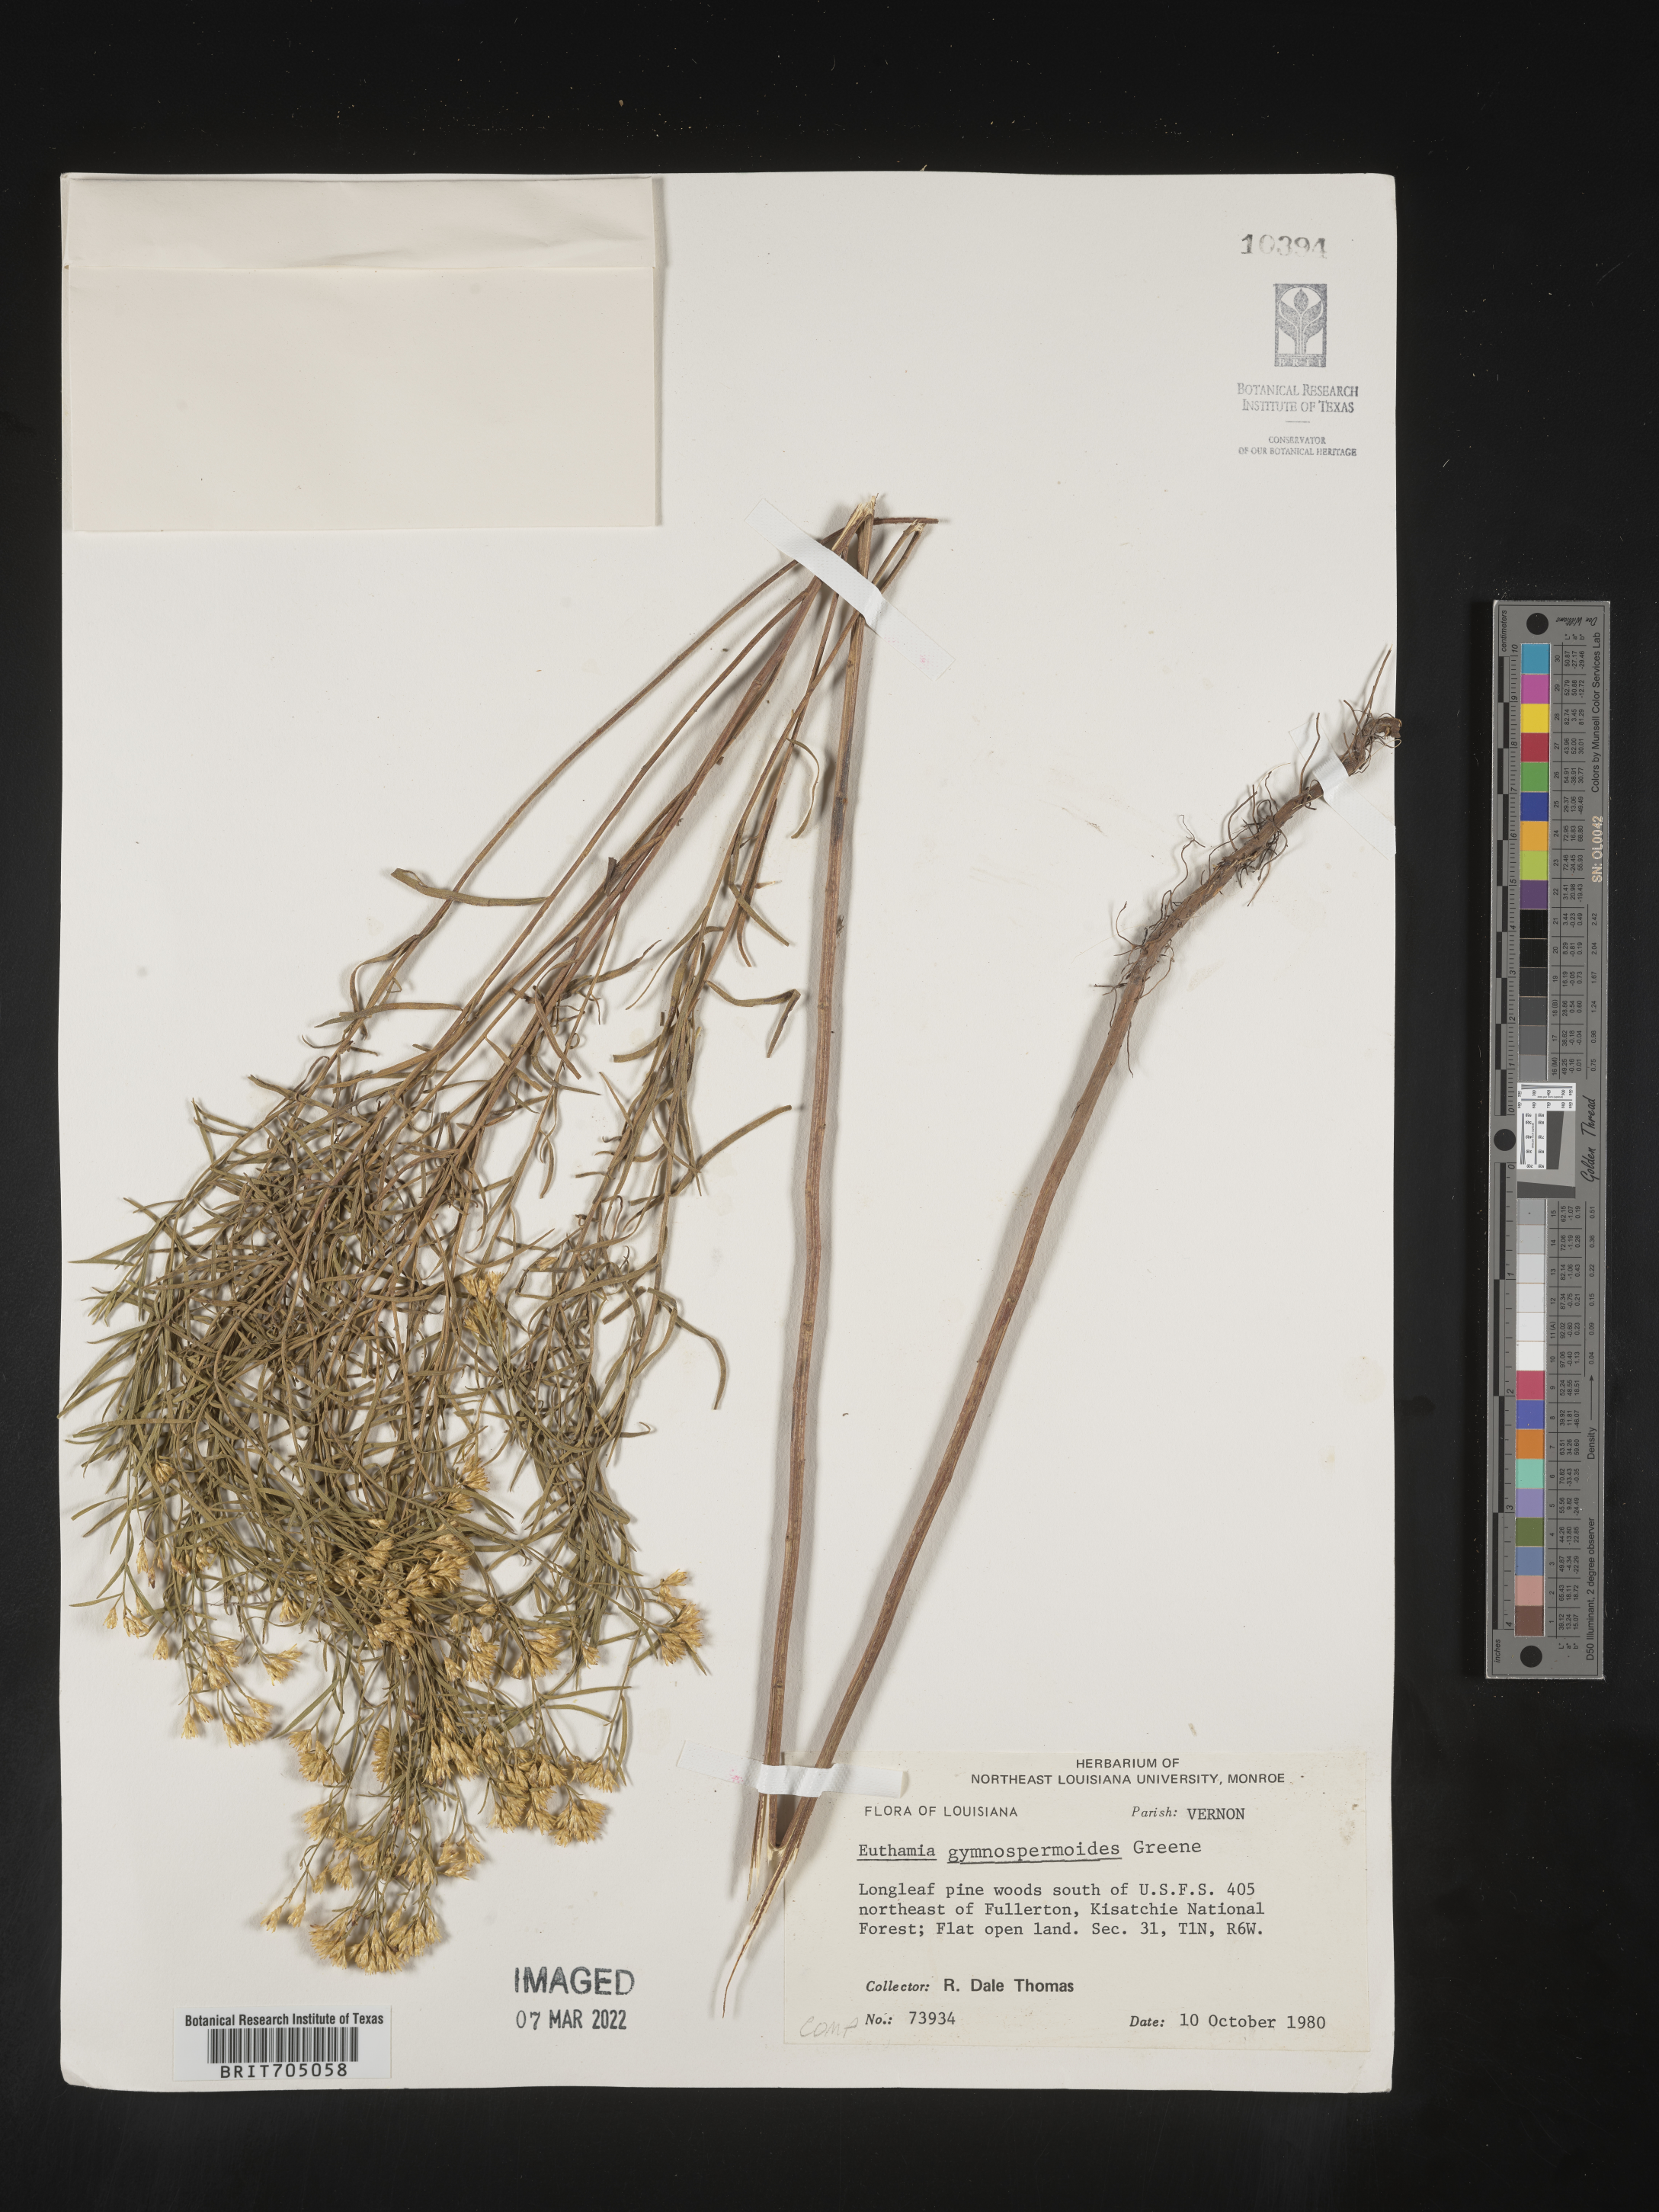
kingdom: Plantae
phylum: Tracheophyta
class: Magnoliopsida
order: Asterales
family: Asteraceae
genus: Euthamia
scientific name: Euthamia gymnospermoides
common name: Great plains goldentop
